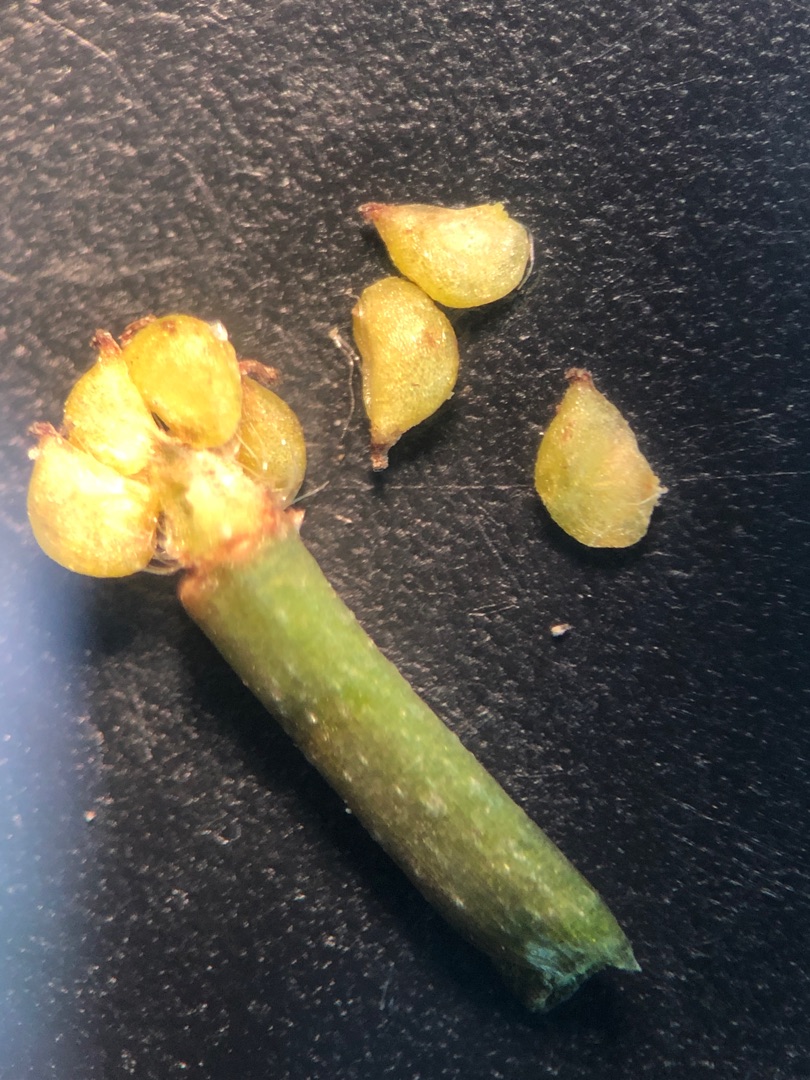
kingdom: Plantae
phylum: Tracheophyta
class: Magnoliopsida
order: Ranunculales
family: Ranunculaceae
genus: Ranunculus
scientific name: Ranunculus
